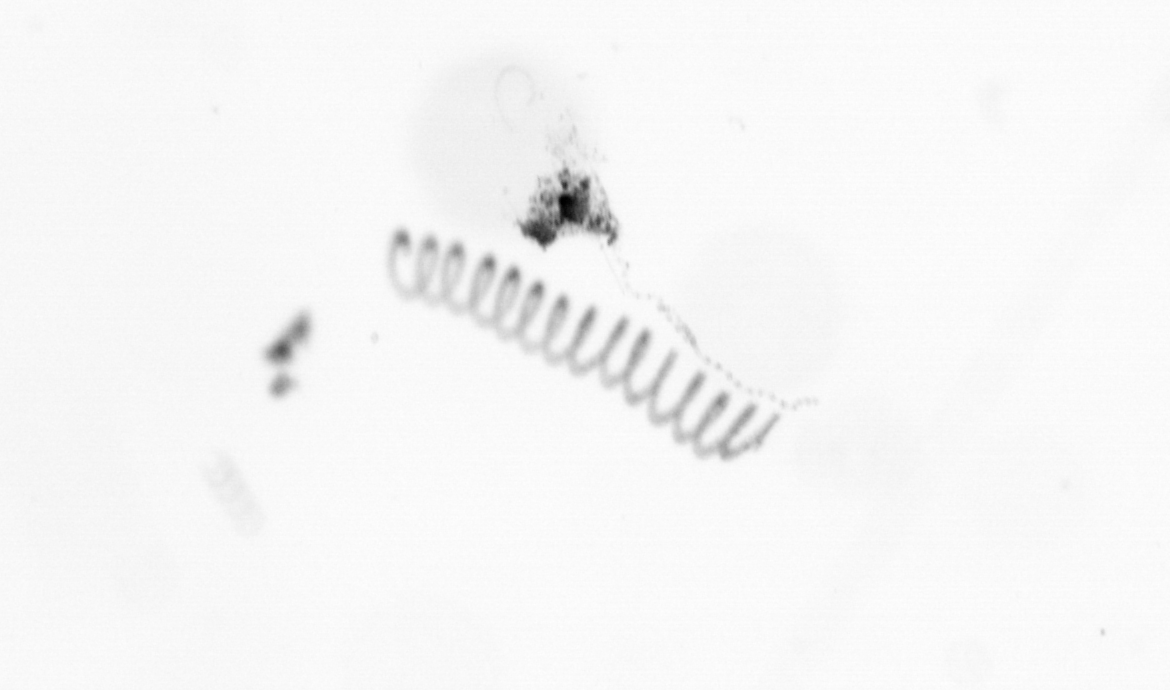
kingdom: Chromista
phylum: Ochrophyta
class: Bacillariophyceae
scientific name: Bacillariophyceae
